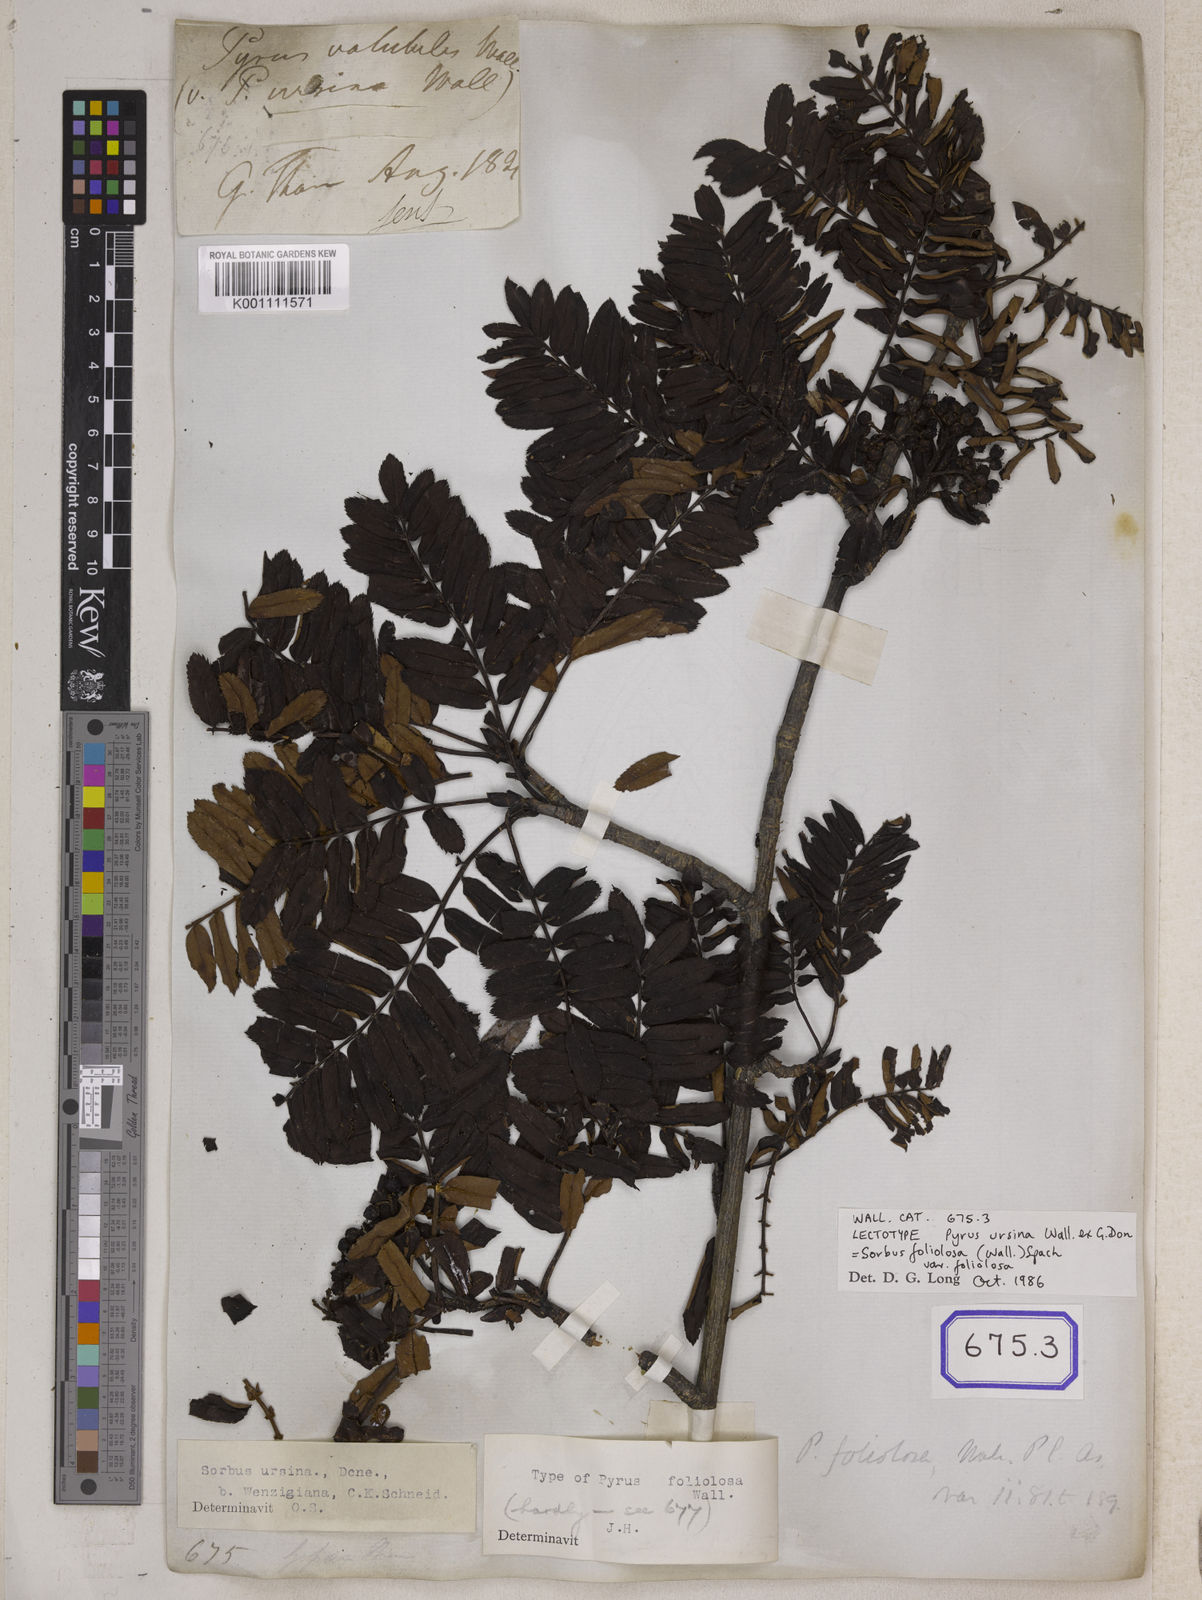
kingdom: Plantae
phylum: Tracheophyta
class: Magnoliopsida
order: Rosales
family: Rosaceae
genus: Pyrus
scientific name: Pyrus
